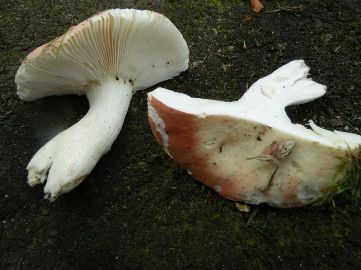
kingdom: Fungi
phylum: Basidiomycota
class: Agaricomycetes
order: Russulales
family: Russulaceae
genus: Russula
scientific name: Russula aurora
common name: rosa skørhat
